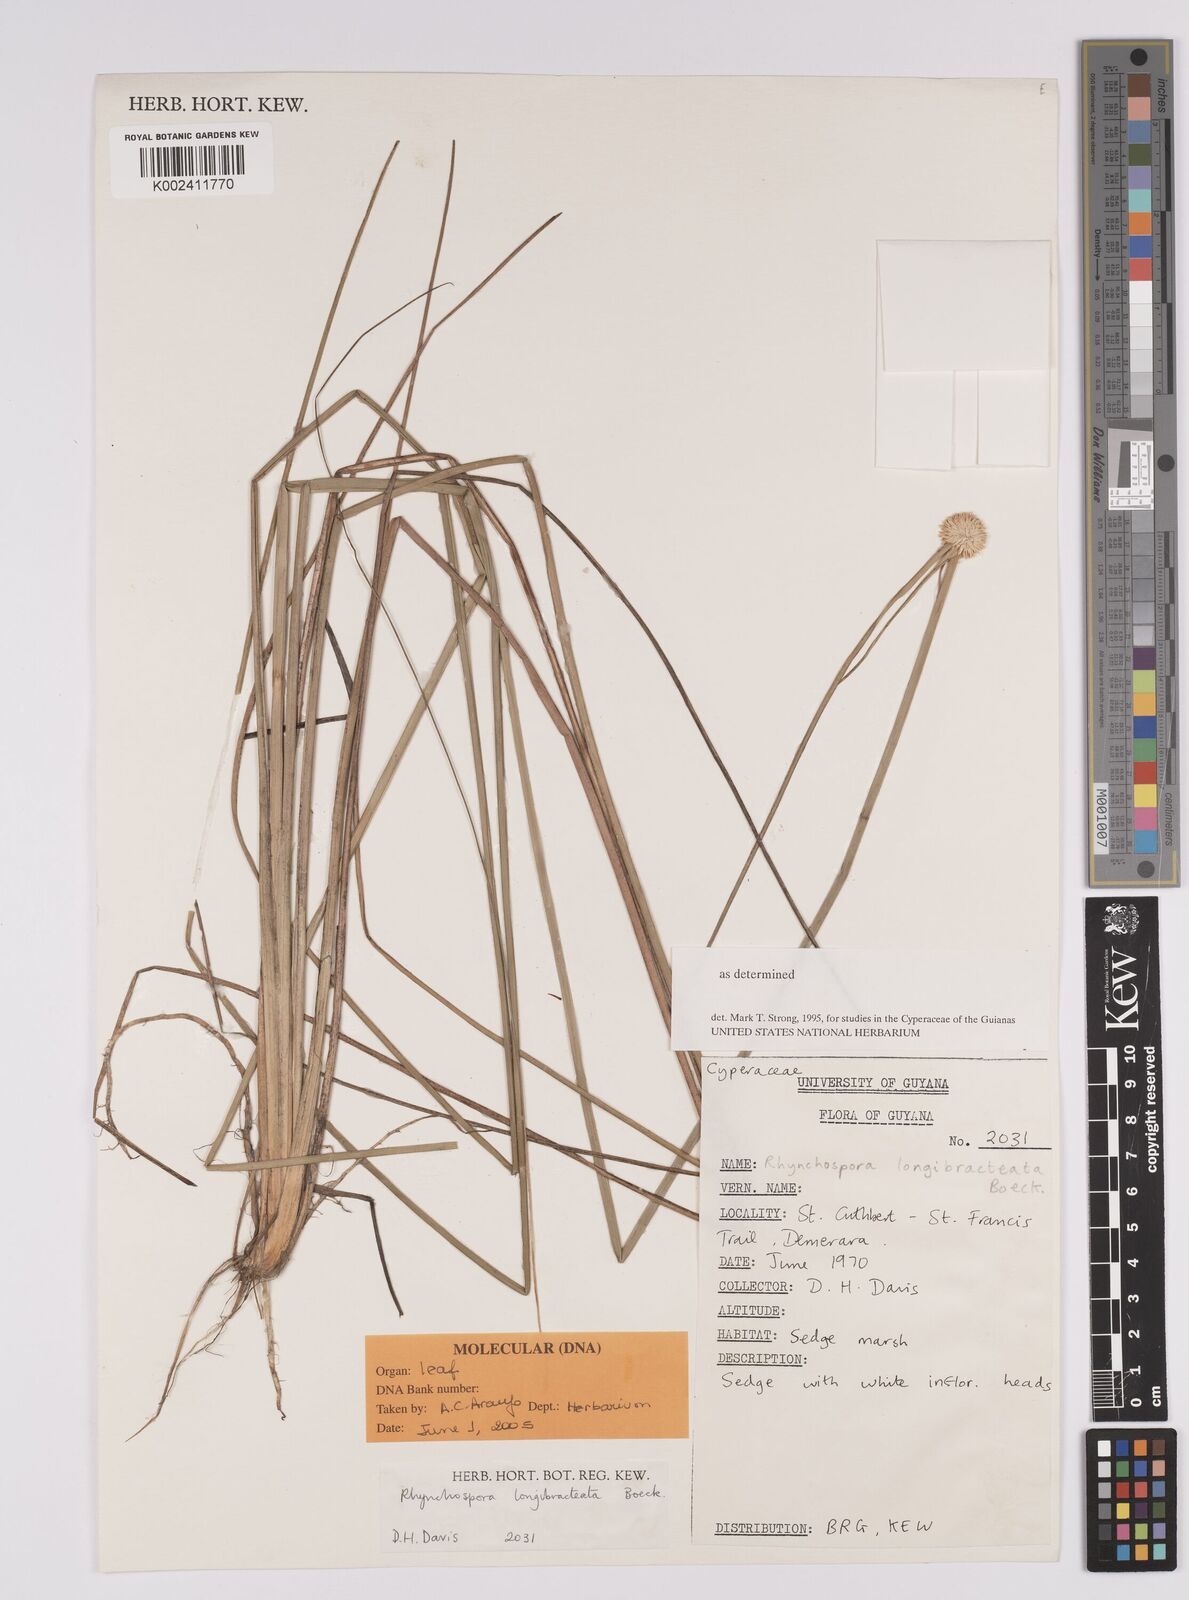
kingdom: Plantae
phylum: Tracheophyta
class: Liliopsida
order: Poales
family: Cyperaceae
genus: Rhynchospora
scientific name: Rhynchospora longibracteata
